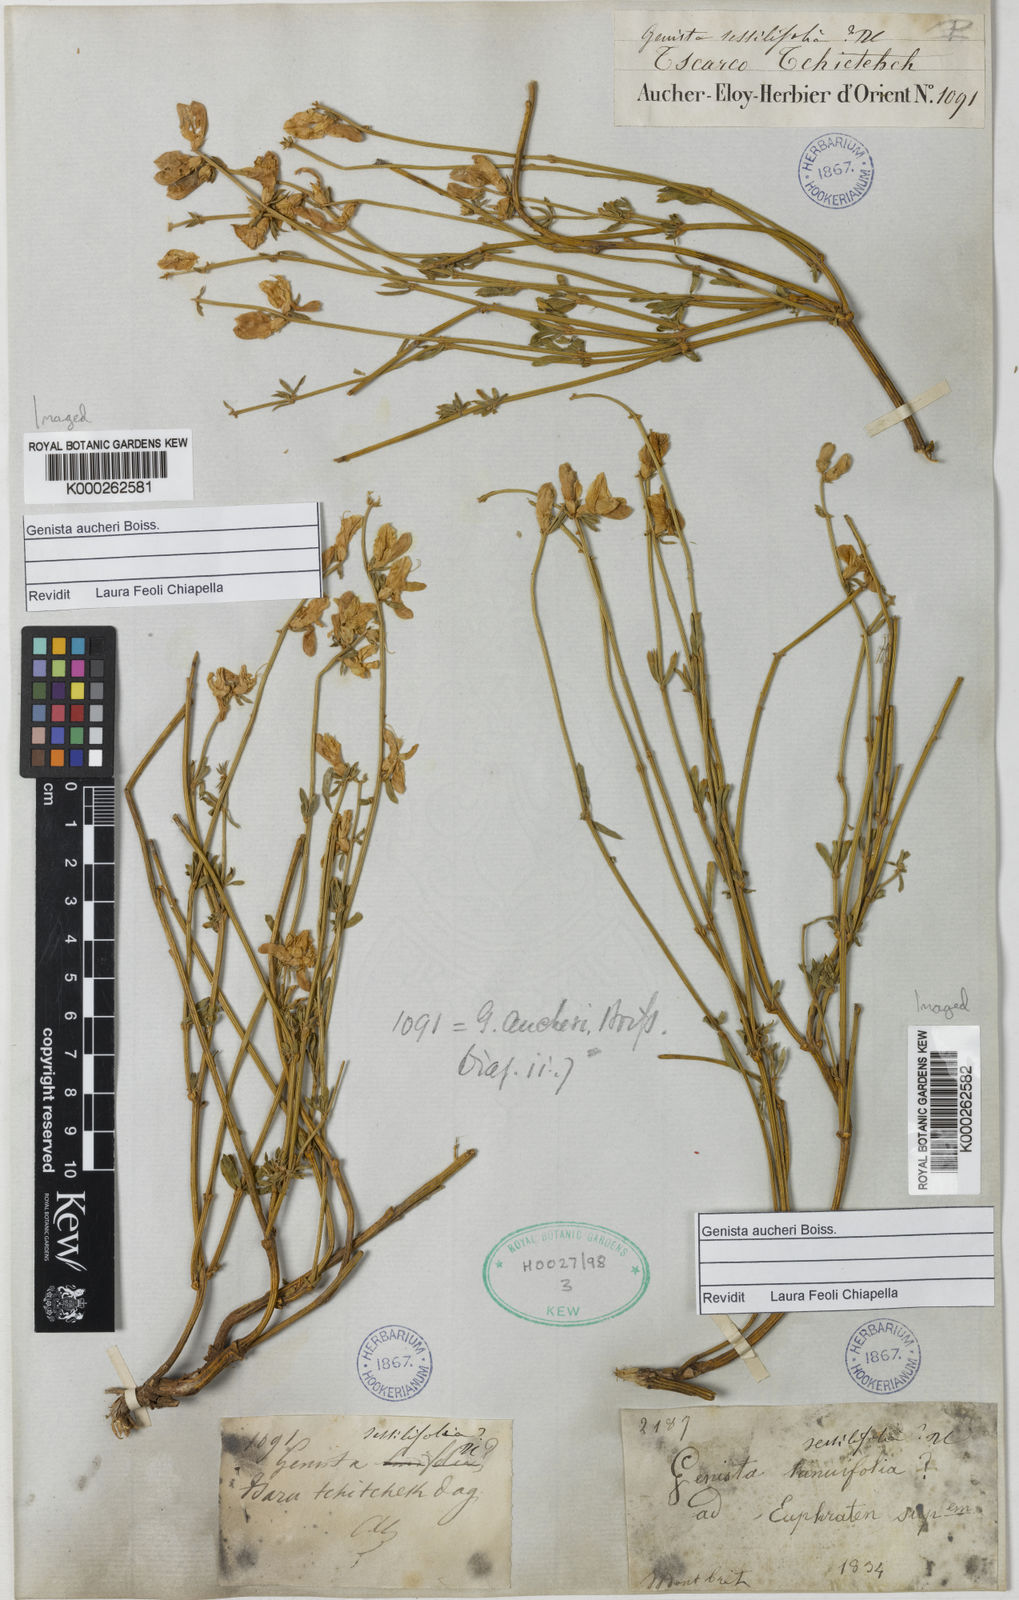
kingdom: Plantae
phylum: Tracheophyta
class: Magnoliopsida
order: Fabales
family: Fabaceae
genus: Genista
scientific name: Genista aucheri
